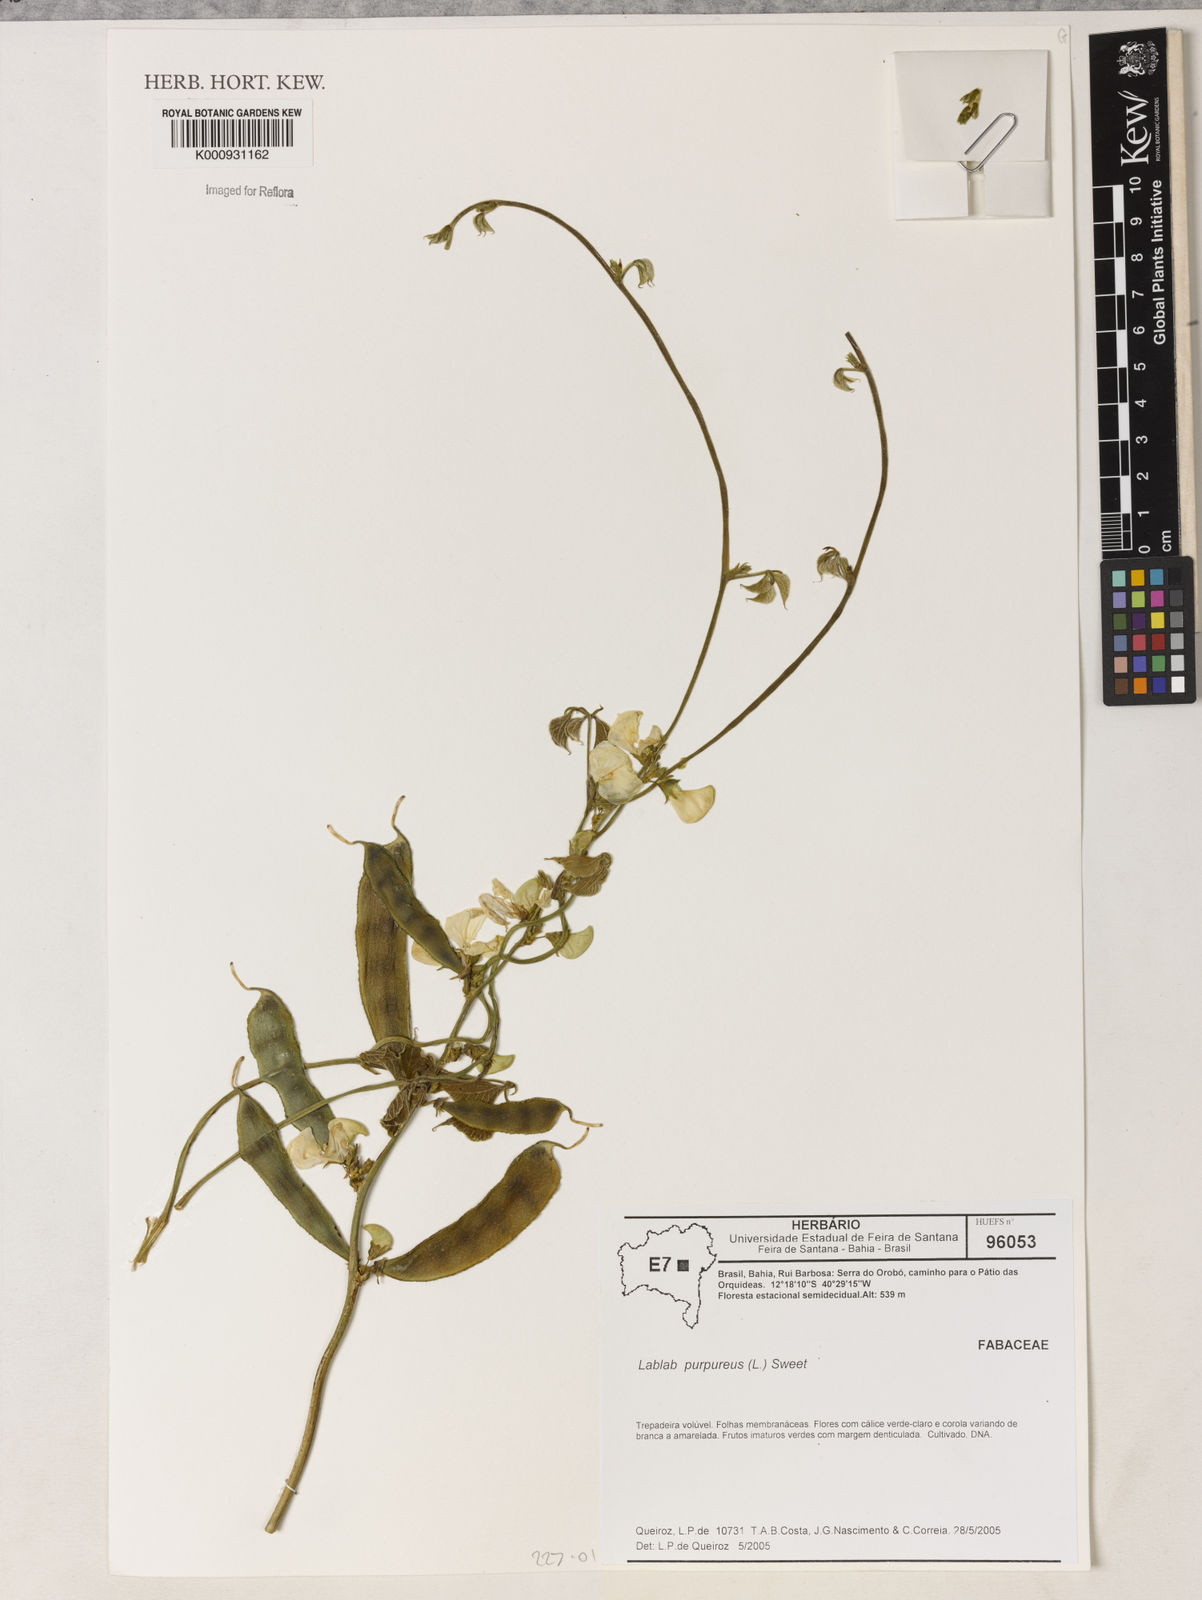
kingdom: Plantae
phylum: Tracheophyta
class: Magnoliopsida
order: Fabales
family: Fabaceae
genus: Lablab
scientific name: Lablab purpureus
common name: Lablab-bean
